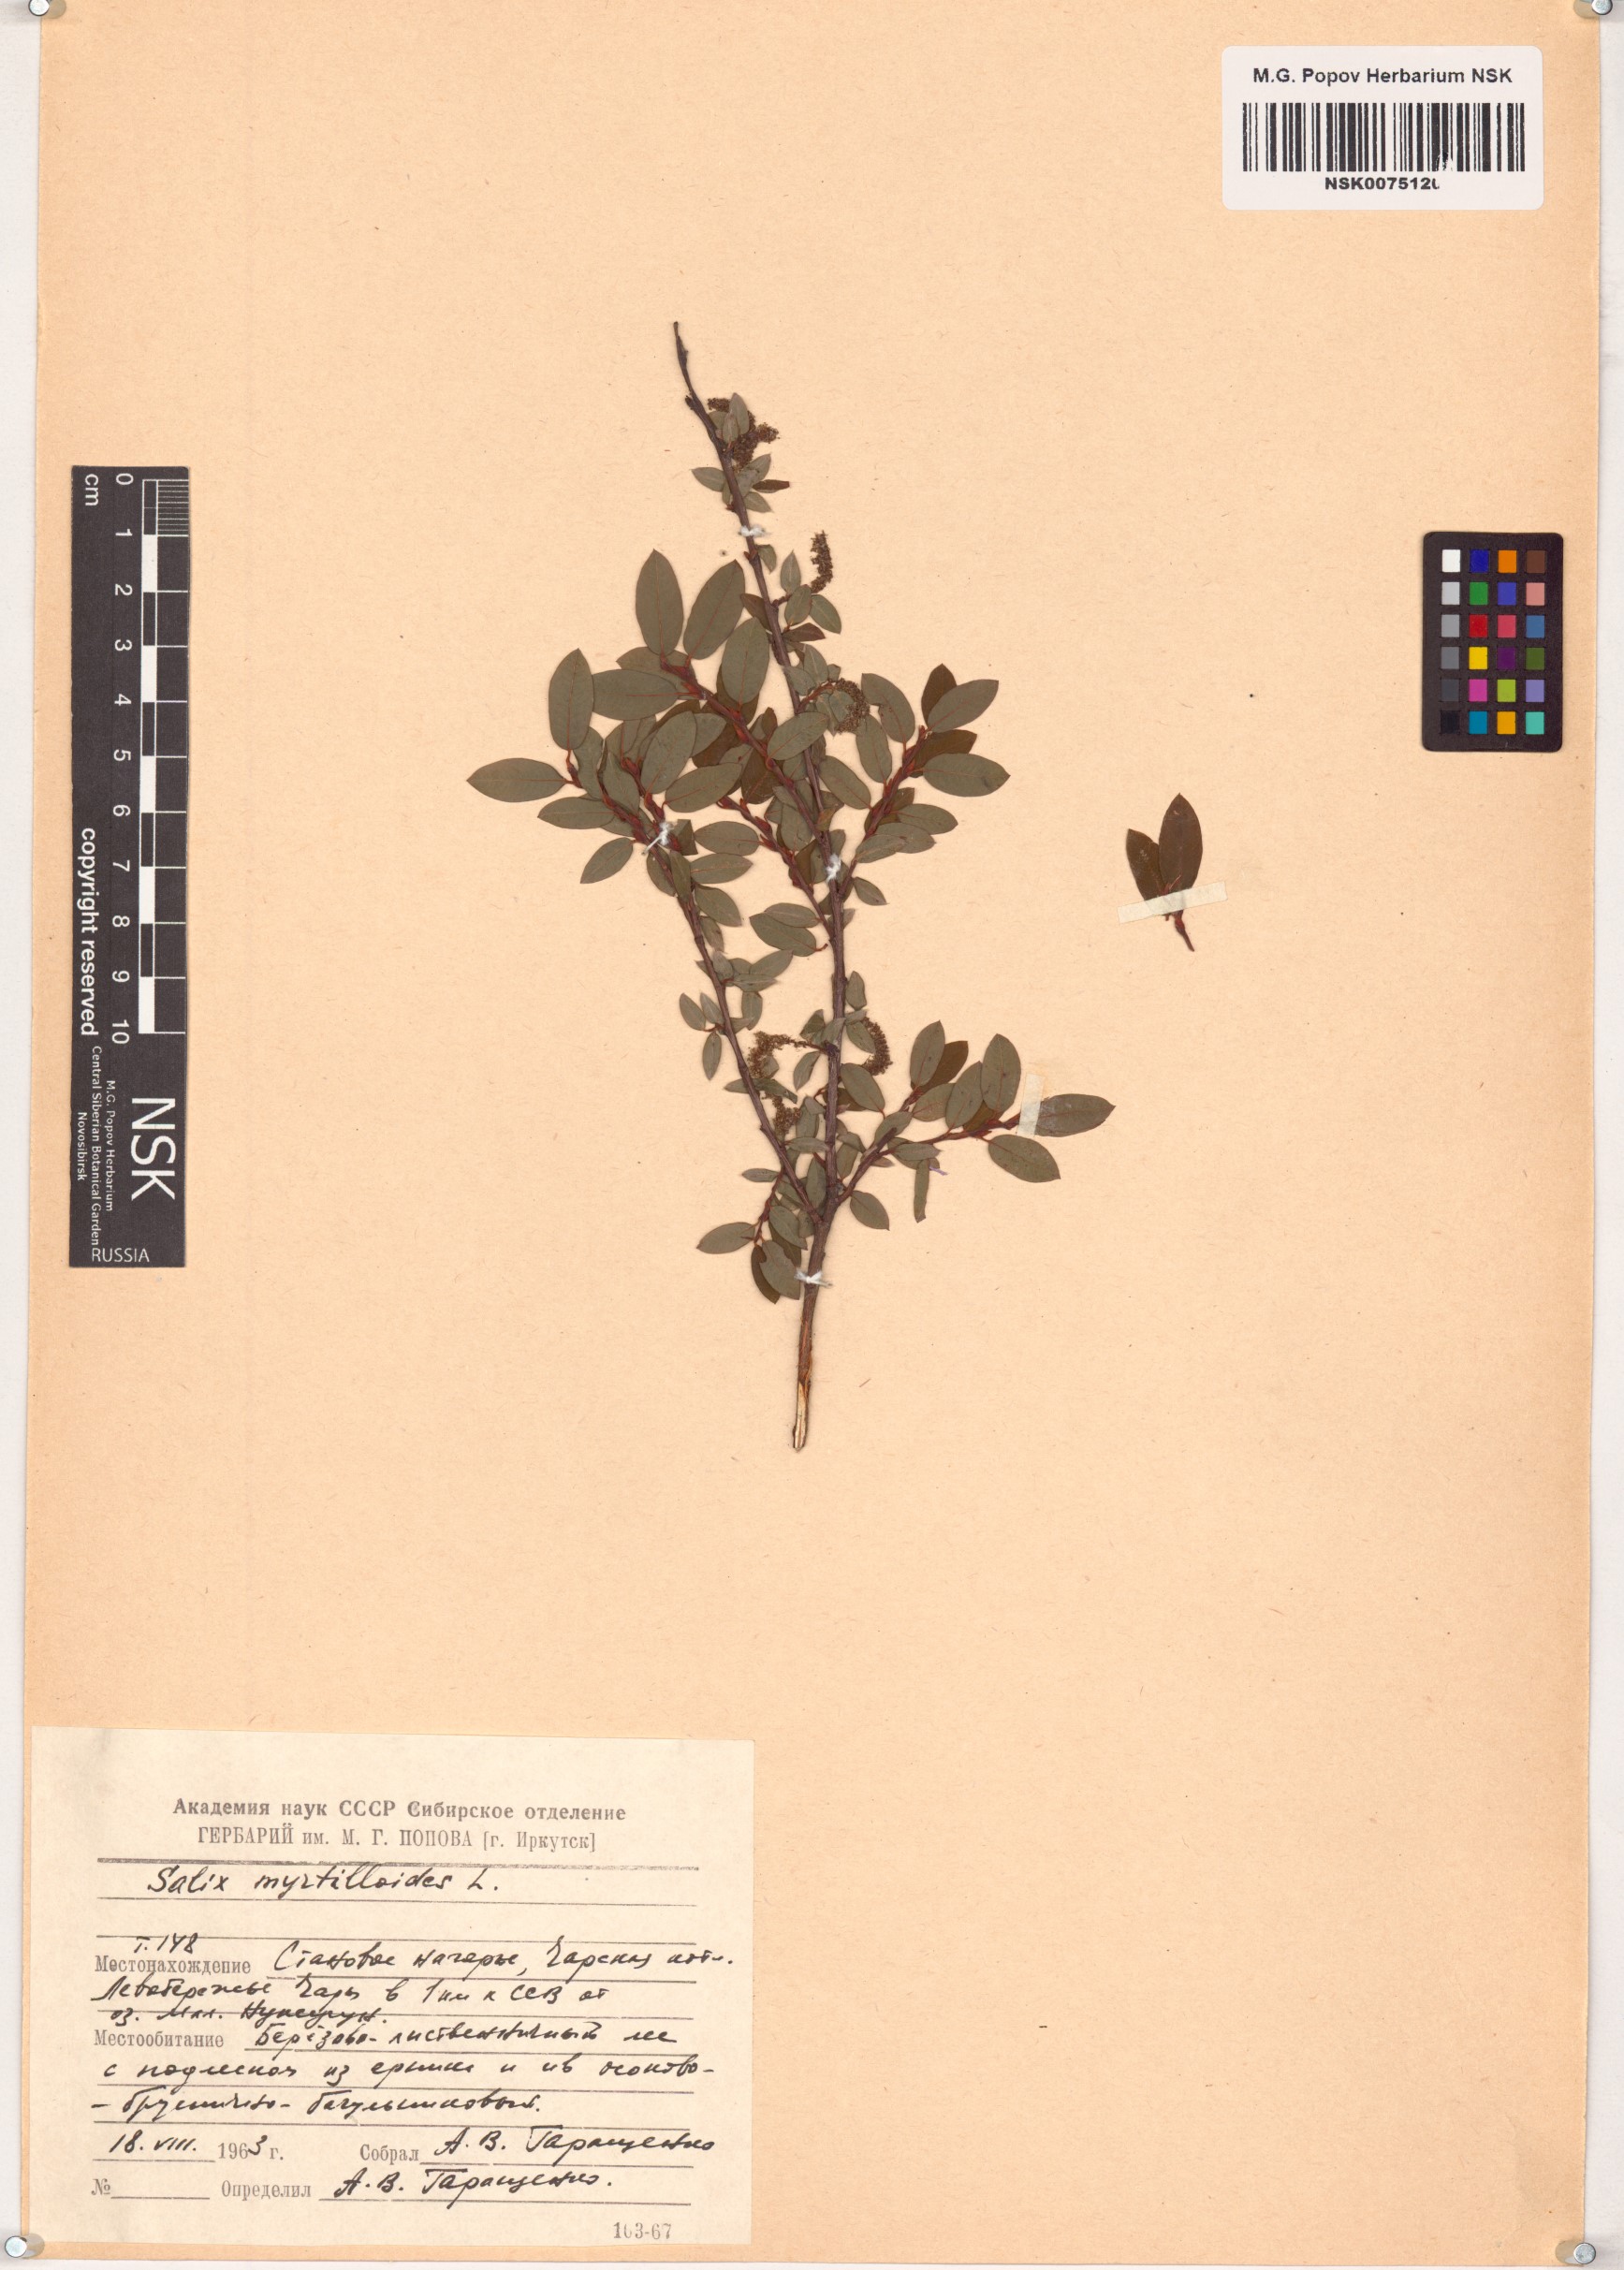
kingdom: Plantae
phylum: Tracheophyta
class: Magnoliopsida
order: Malpighiales
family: Salicaceae
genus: Salix
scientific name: Salix myrtilloides
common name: Myrtle-leaved willow
